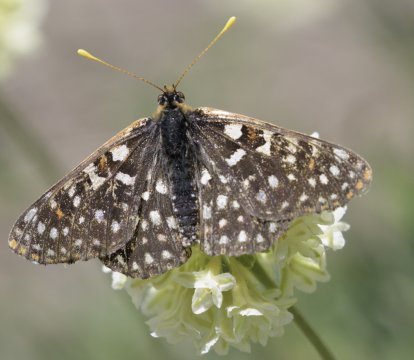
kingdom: Animalia
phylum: Arthropoda
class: Insecta
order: Lepidoptera
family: Nymphalidae
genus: Occidryas
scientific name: Occidryas chalcedona
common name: Chalcedon Checkerspot
